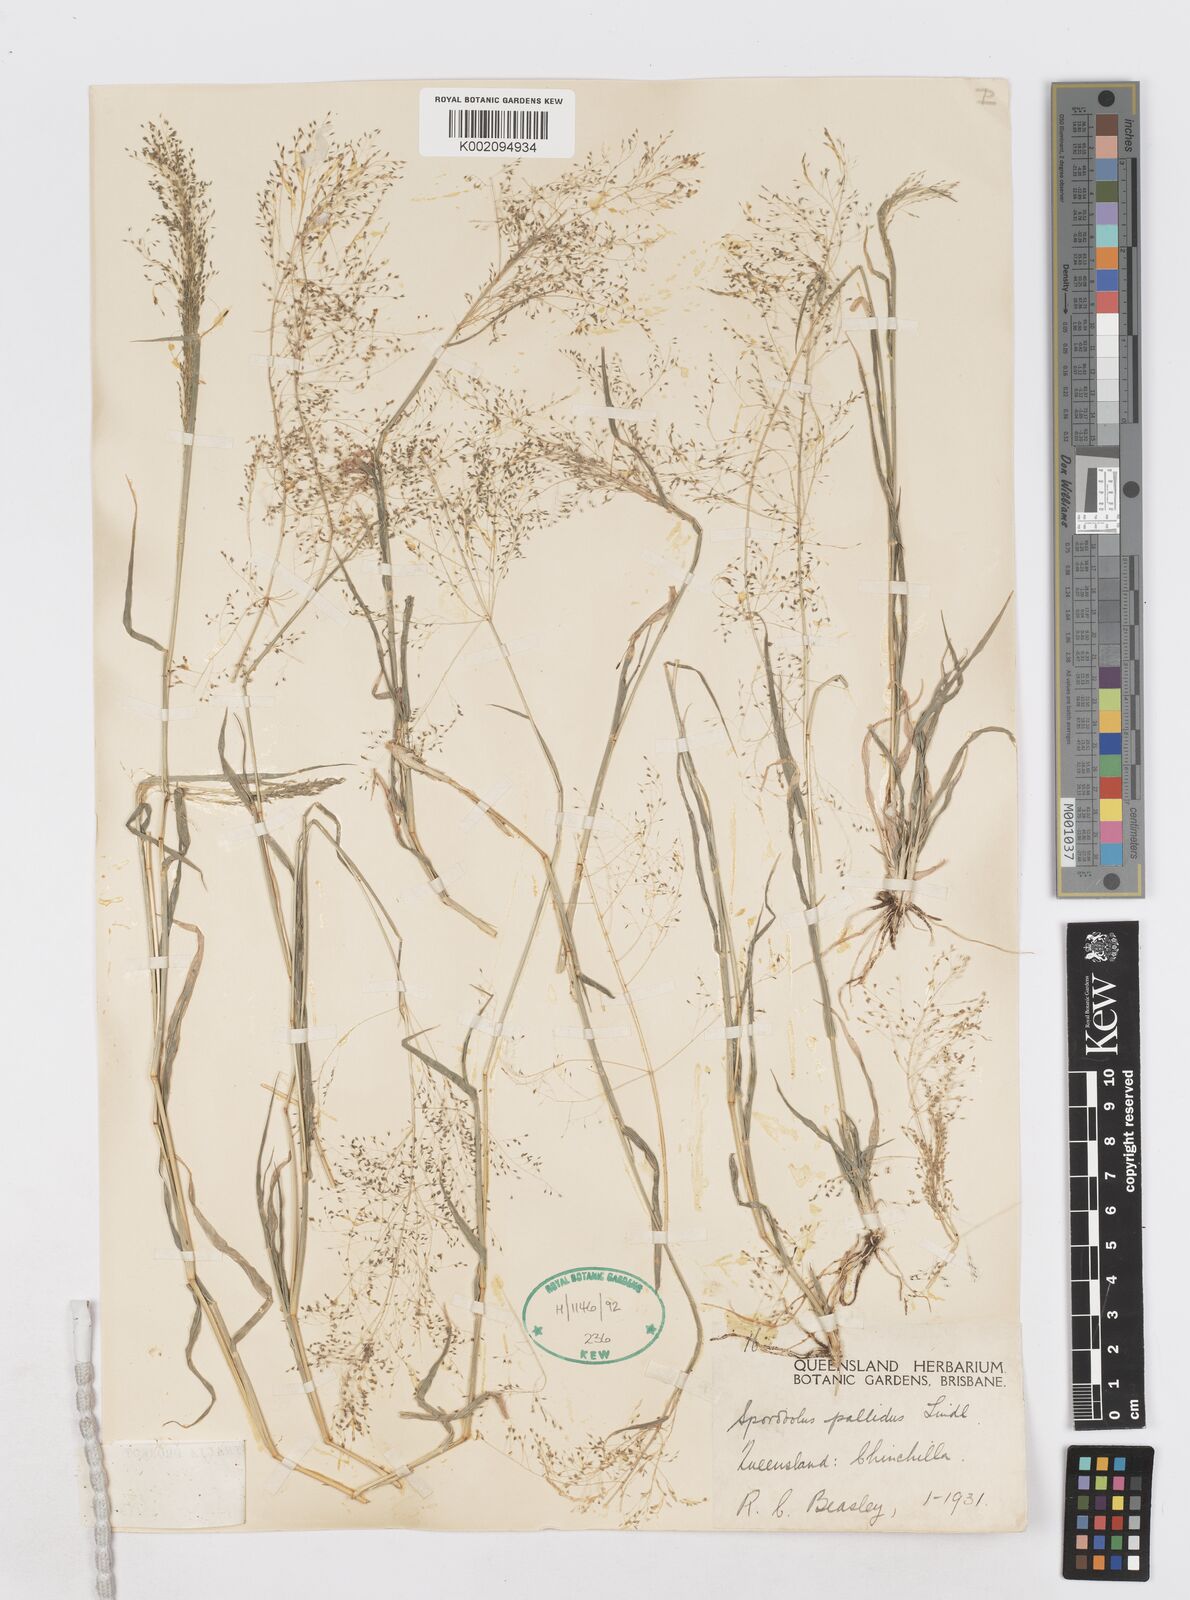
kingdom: Plantae
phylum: Tracheophyta
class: Liliopsida
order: Poales
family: Poaceae
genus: Sporobolus
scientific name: Sporobolus caroli
